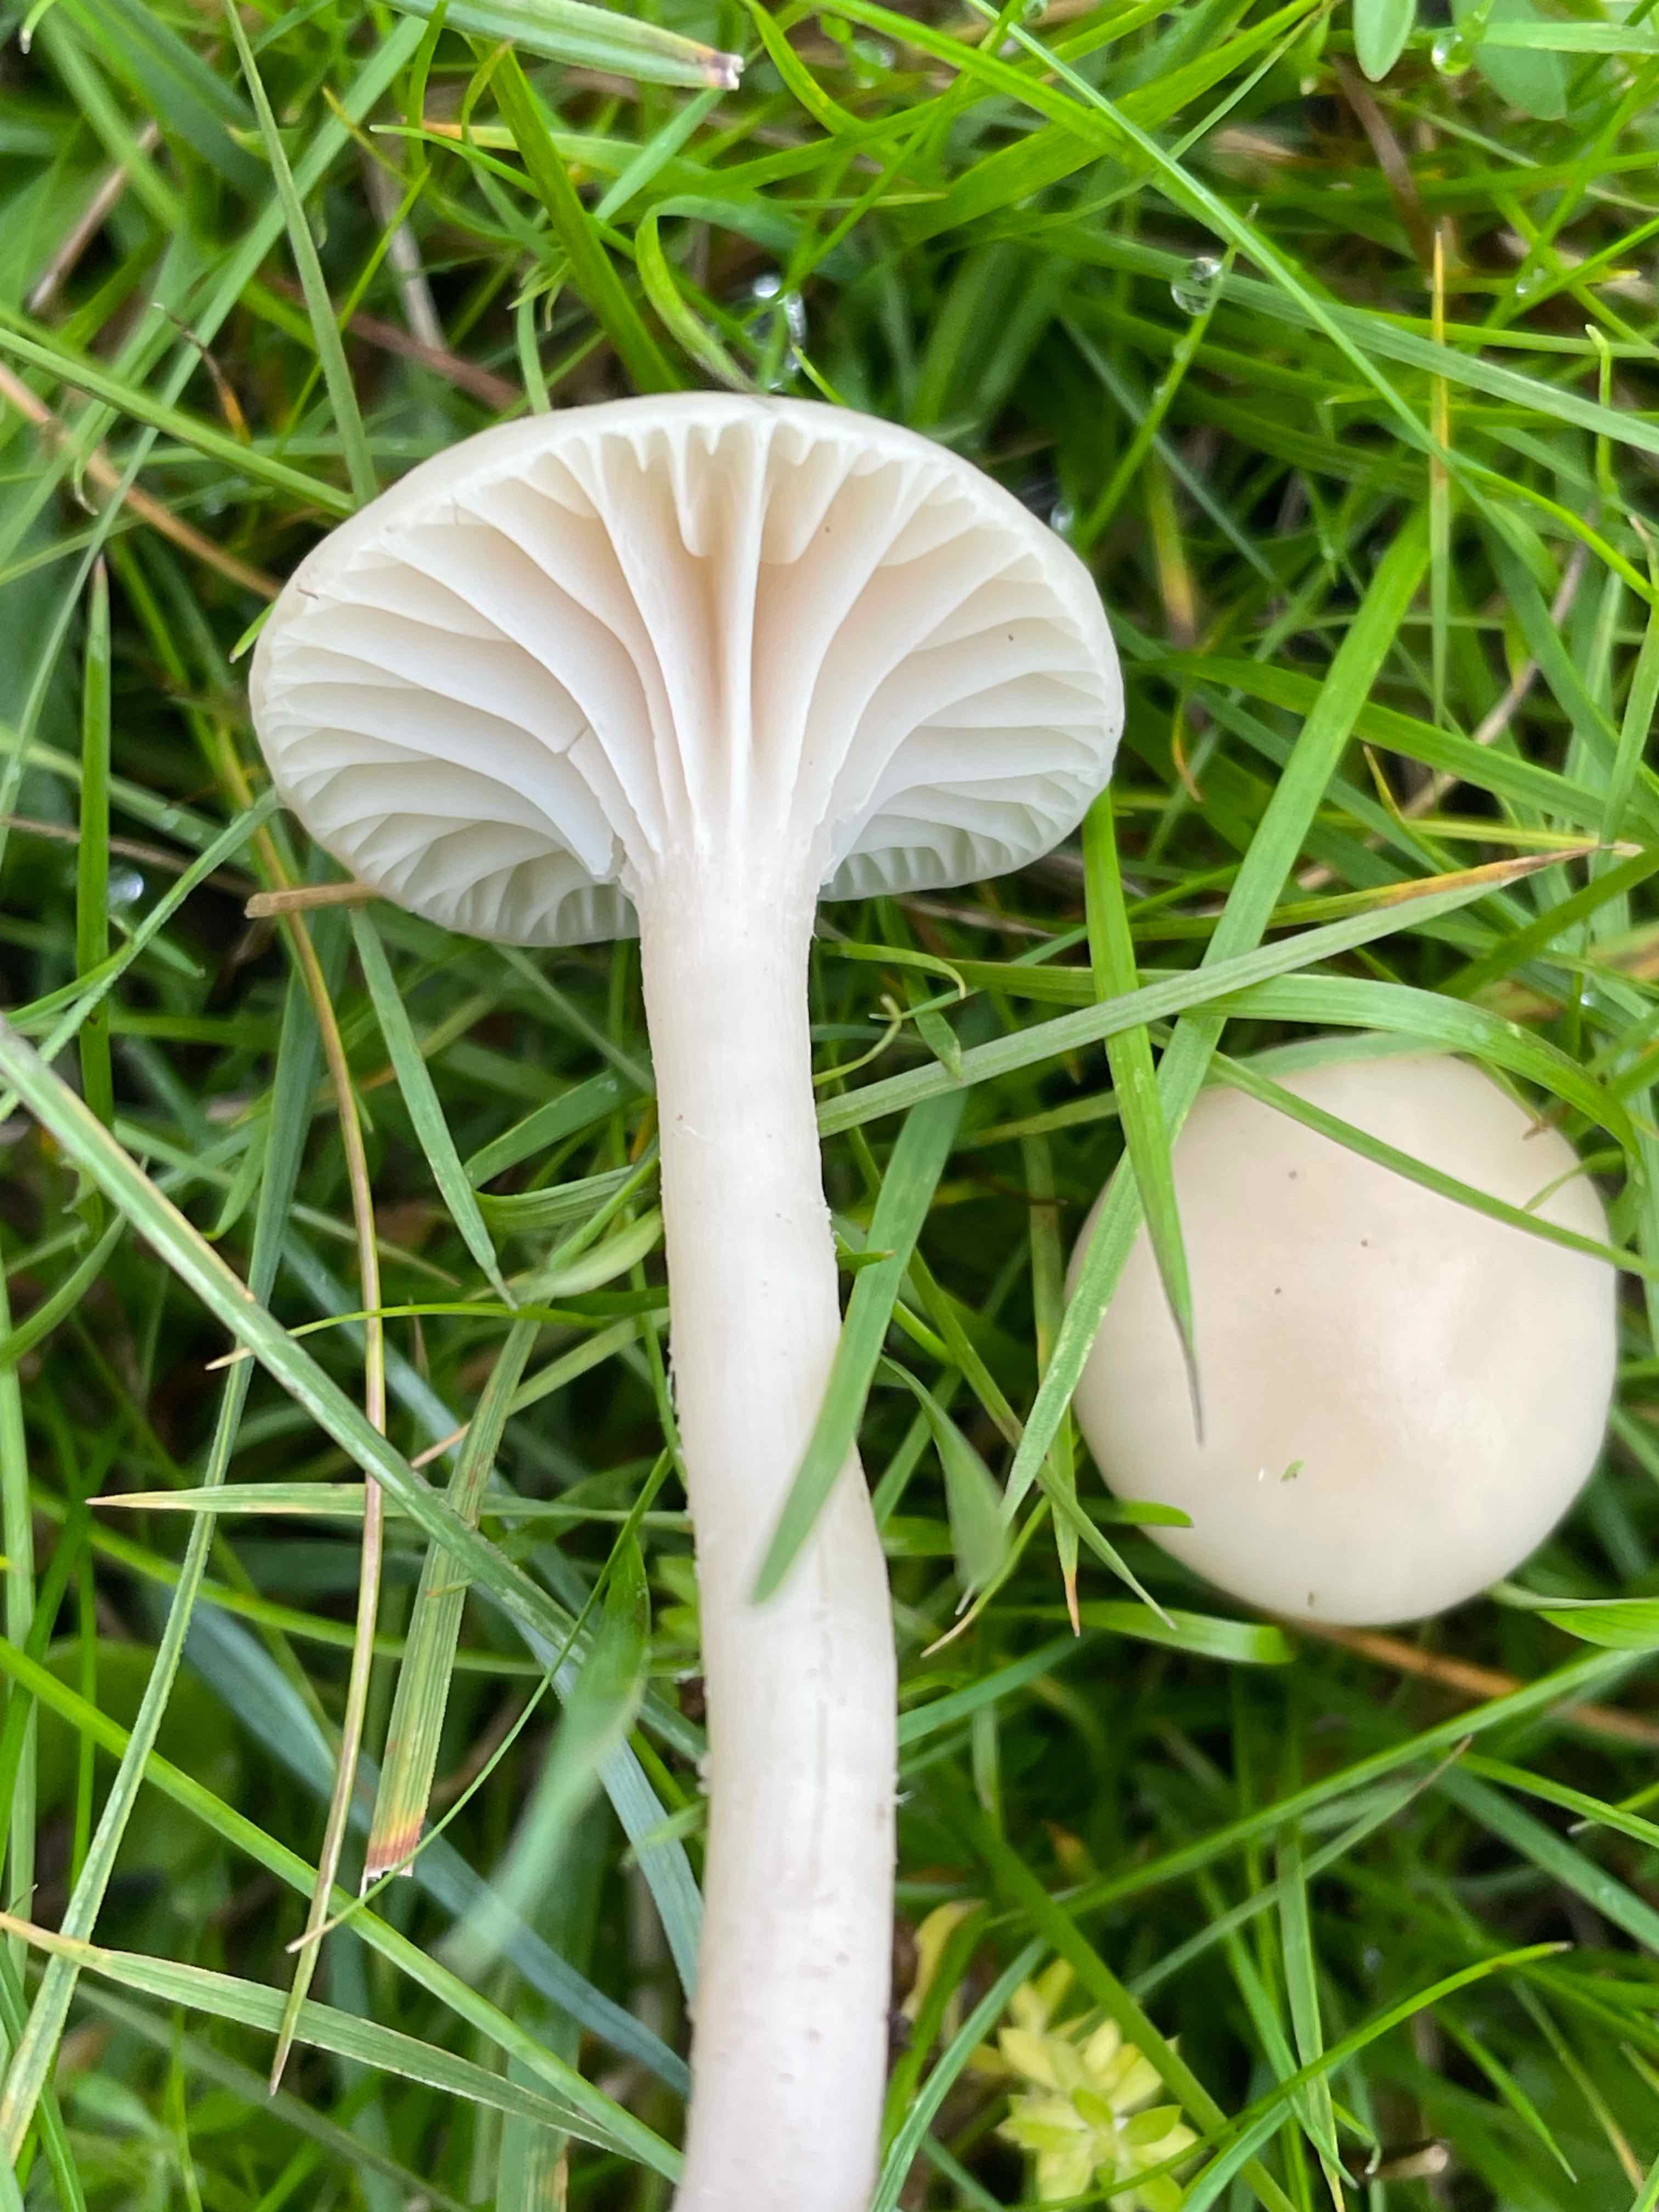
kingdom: Fungi
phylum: Basidiomycota
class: Agaricomycetes
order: Agaricales
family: Hygrophoraceae
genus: Cuphophyllus
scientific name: Cuphophyllus virgineus
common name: snehvid vokshat
